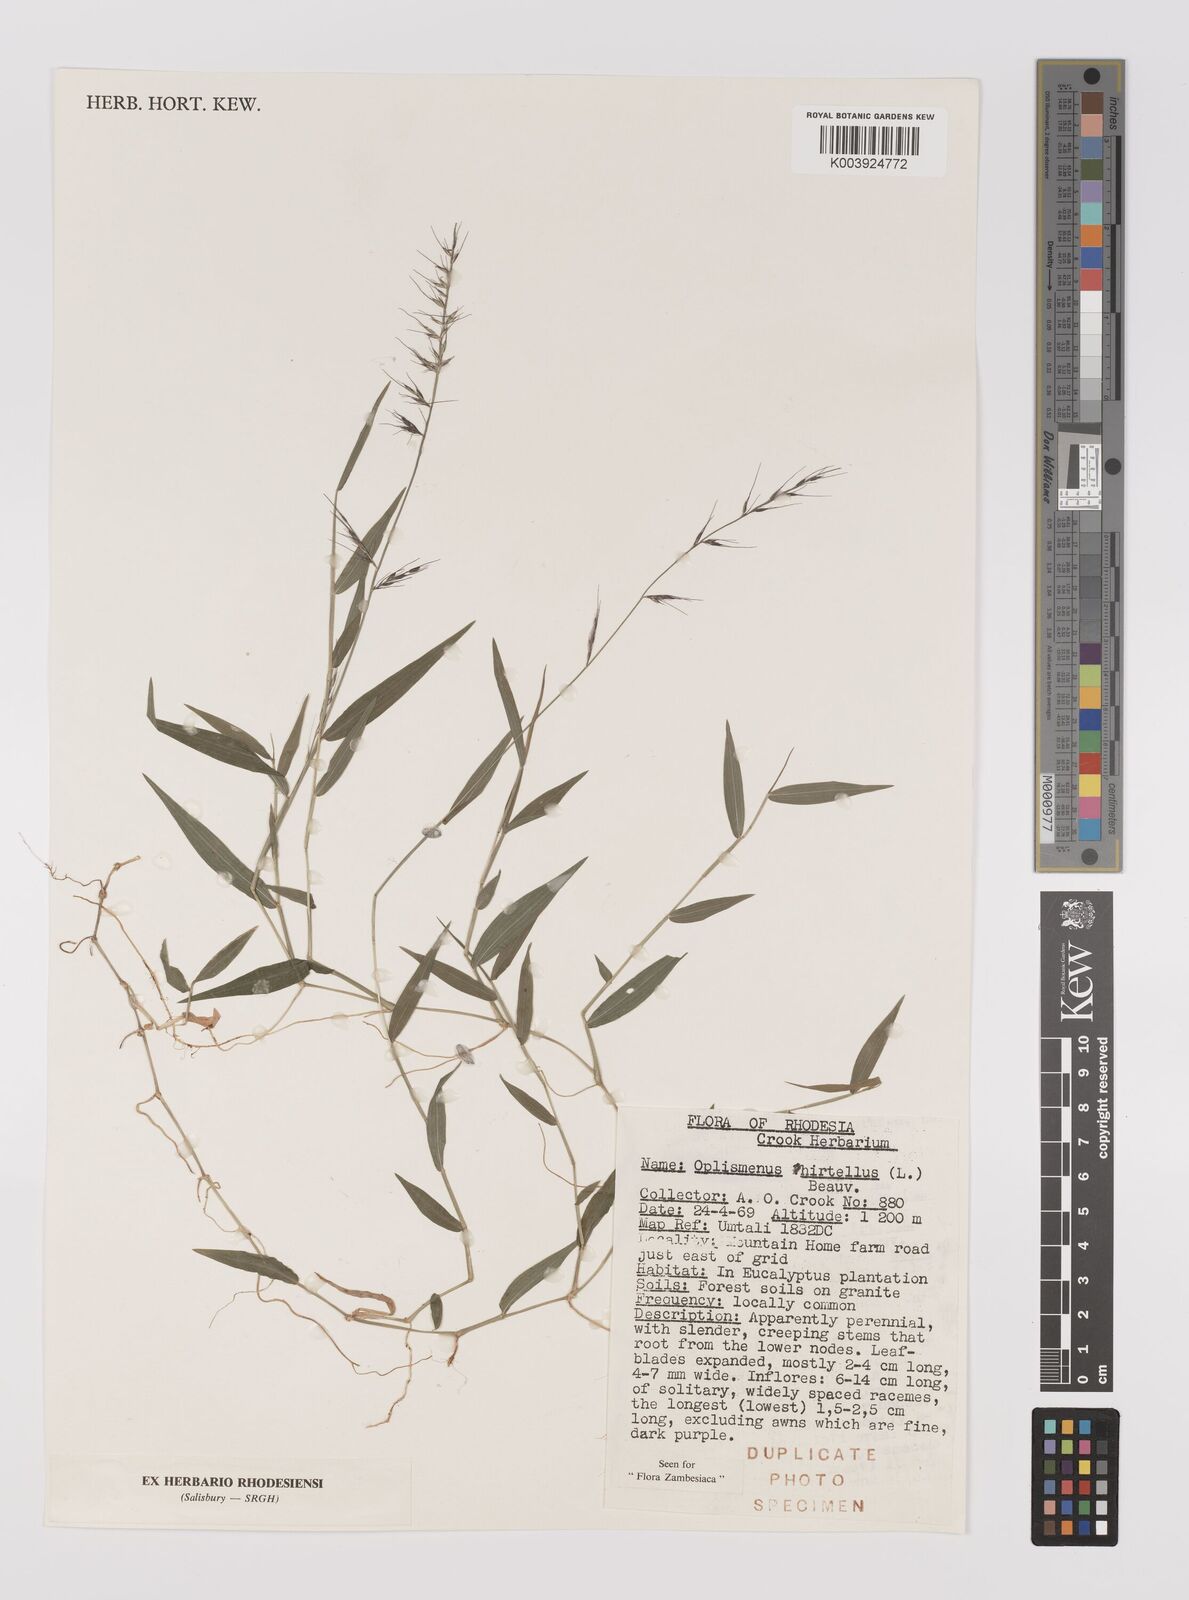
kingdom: Plantae
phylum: Tracheophyta
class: Liliopsida
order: Poales
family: Poaceae
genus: Oplismenus
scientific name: Oplismenus hirtellus
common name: Basketgrass
